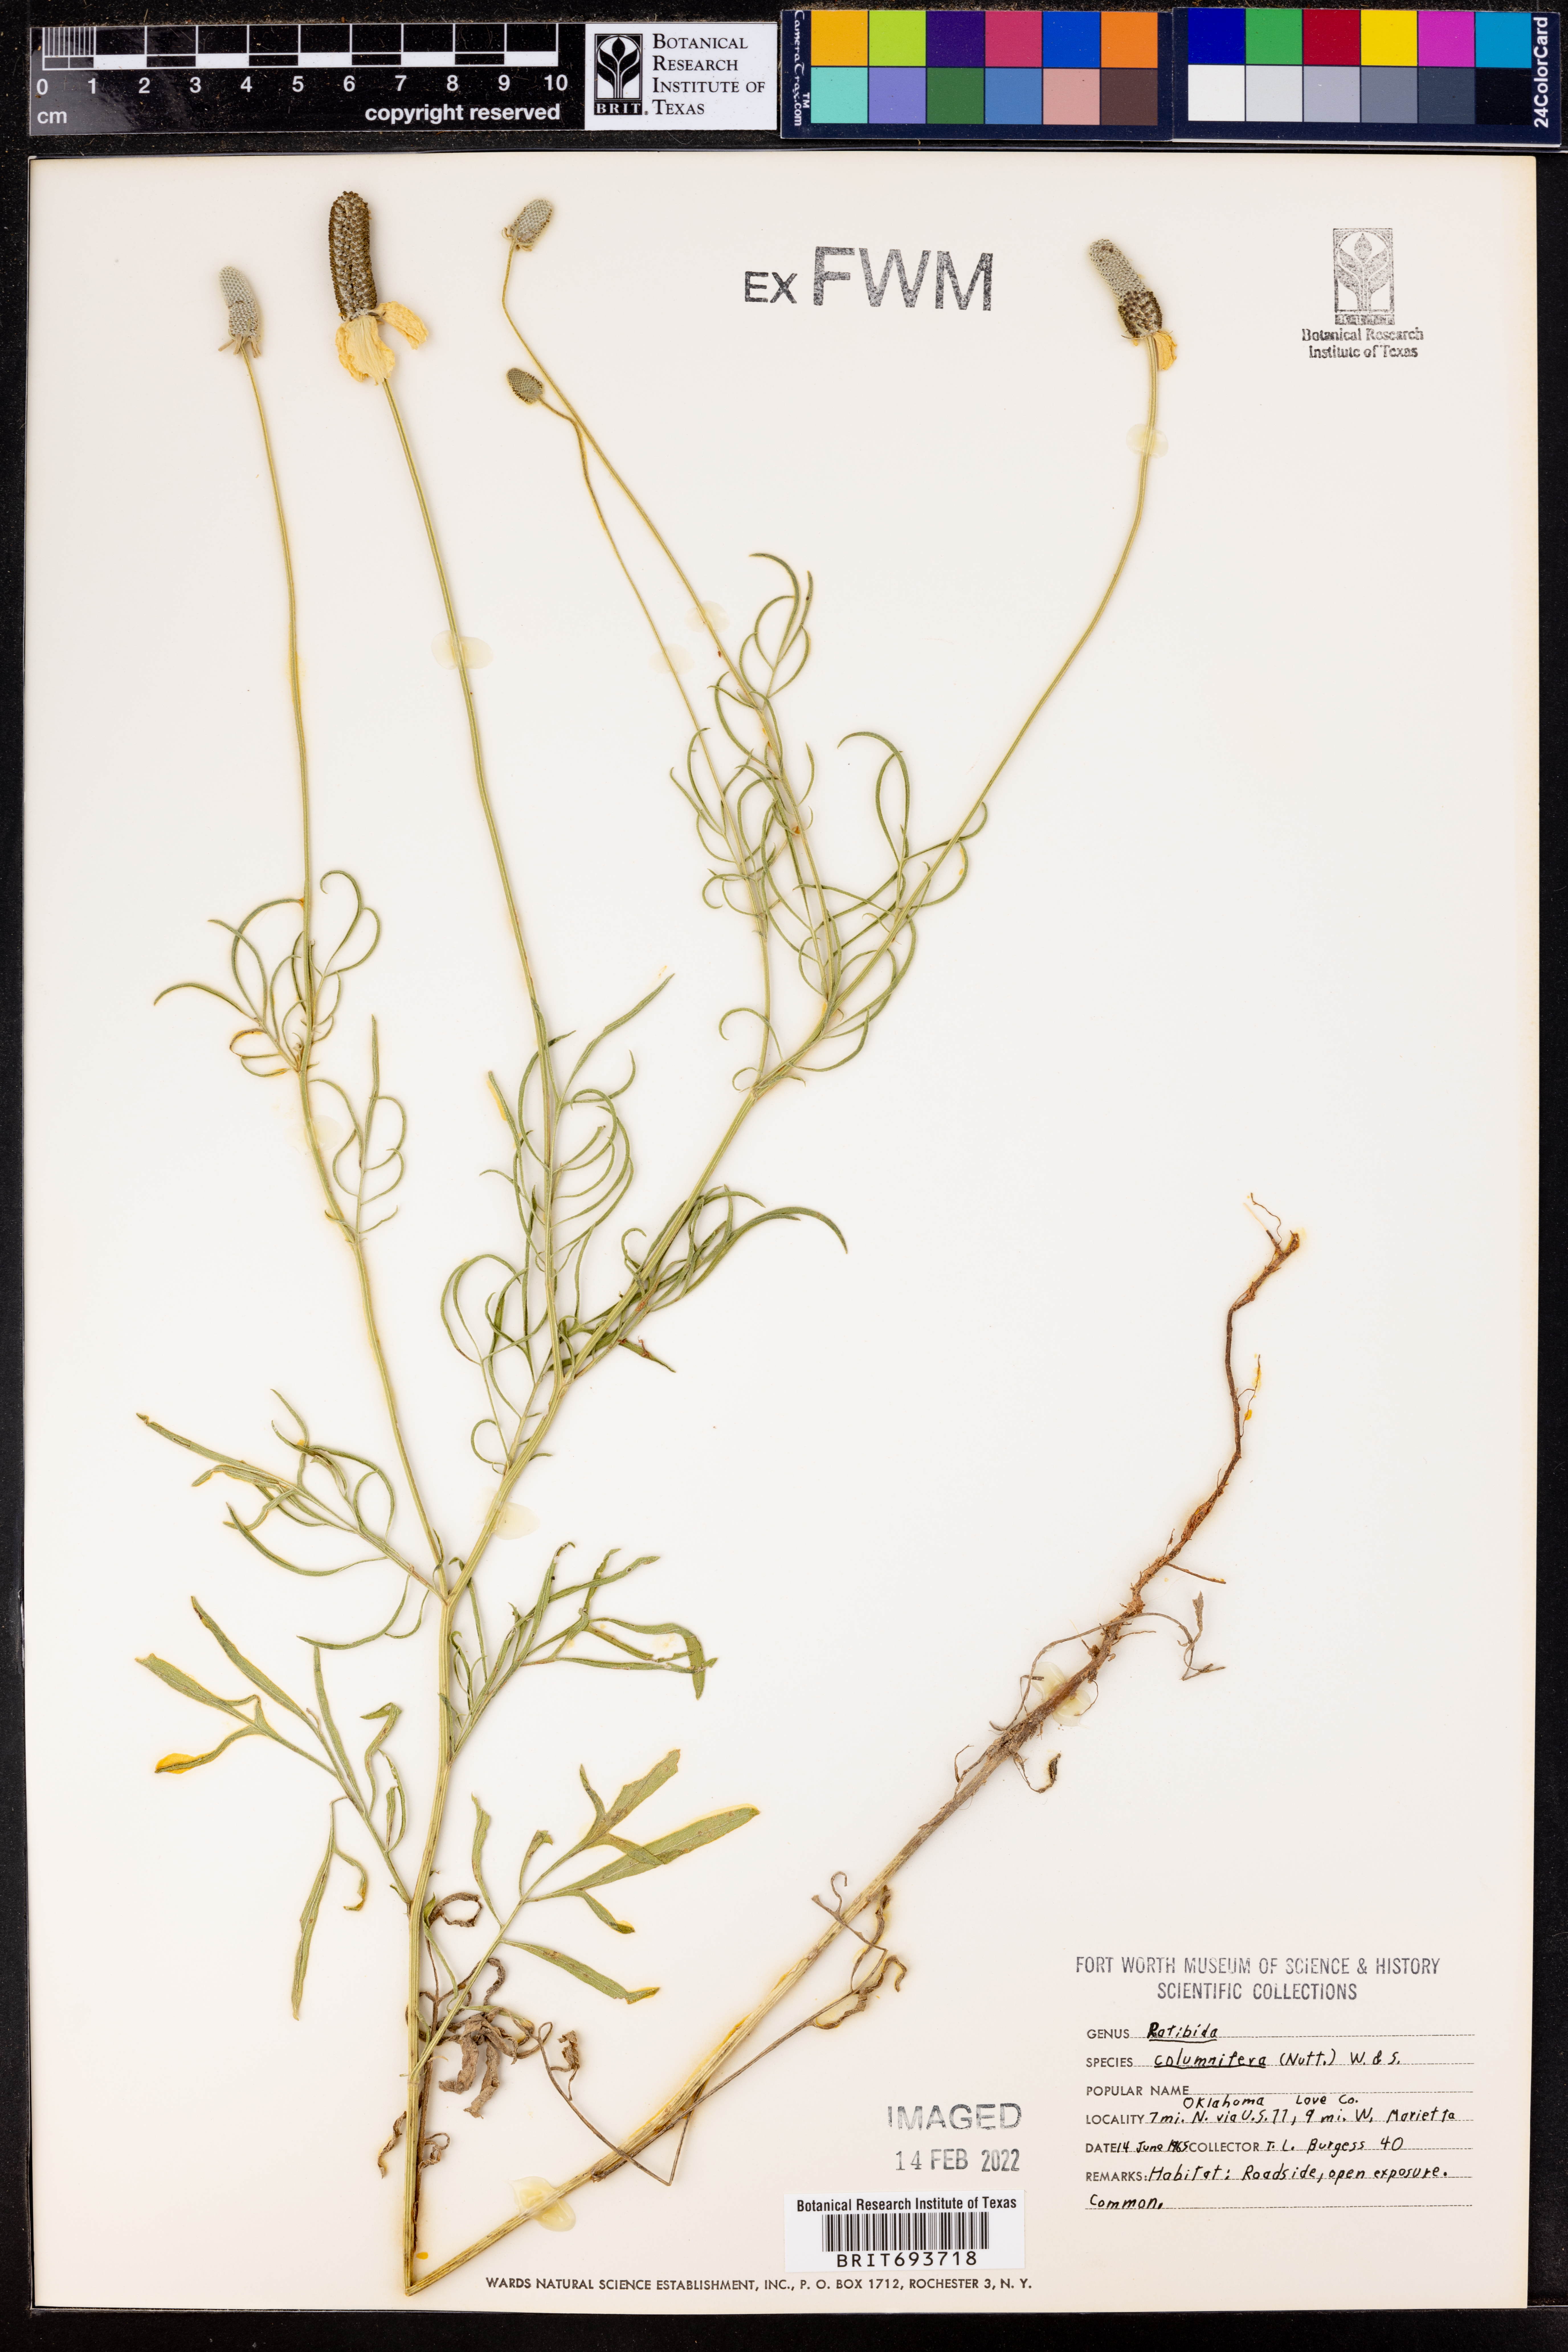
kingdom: Plantae
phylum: Tracheophyta
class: Magnoliopsida
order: Asterales
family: Asteraceae
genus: Ratibida
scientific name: Ratibida columnifera
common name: Prairie coneflower
